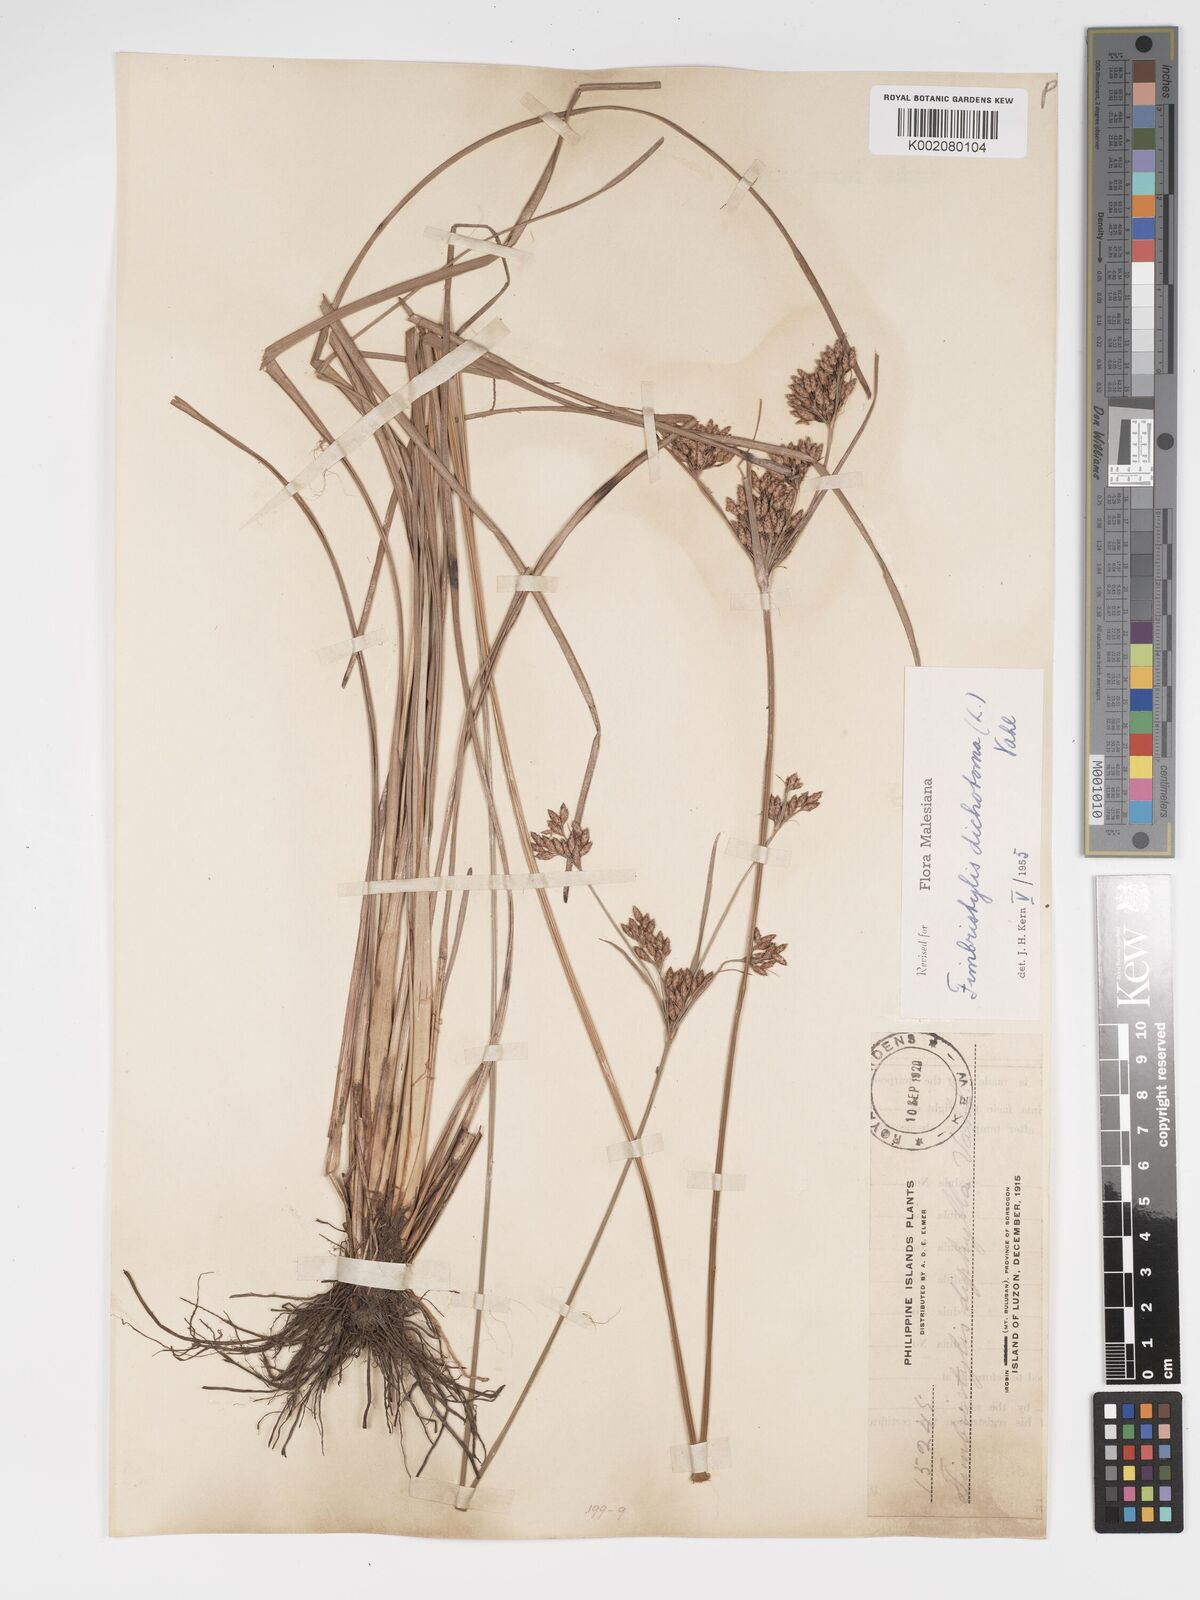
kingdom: Plantae
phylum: Tracheophyta
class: Liliopsida
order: Poales
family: Cyperaceae
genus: Fimbristylis
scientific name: Fimbristylis dichotoma
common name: Forked fimbry
